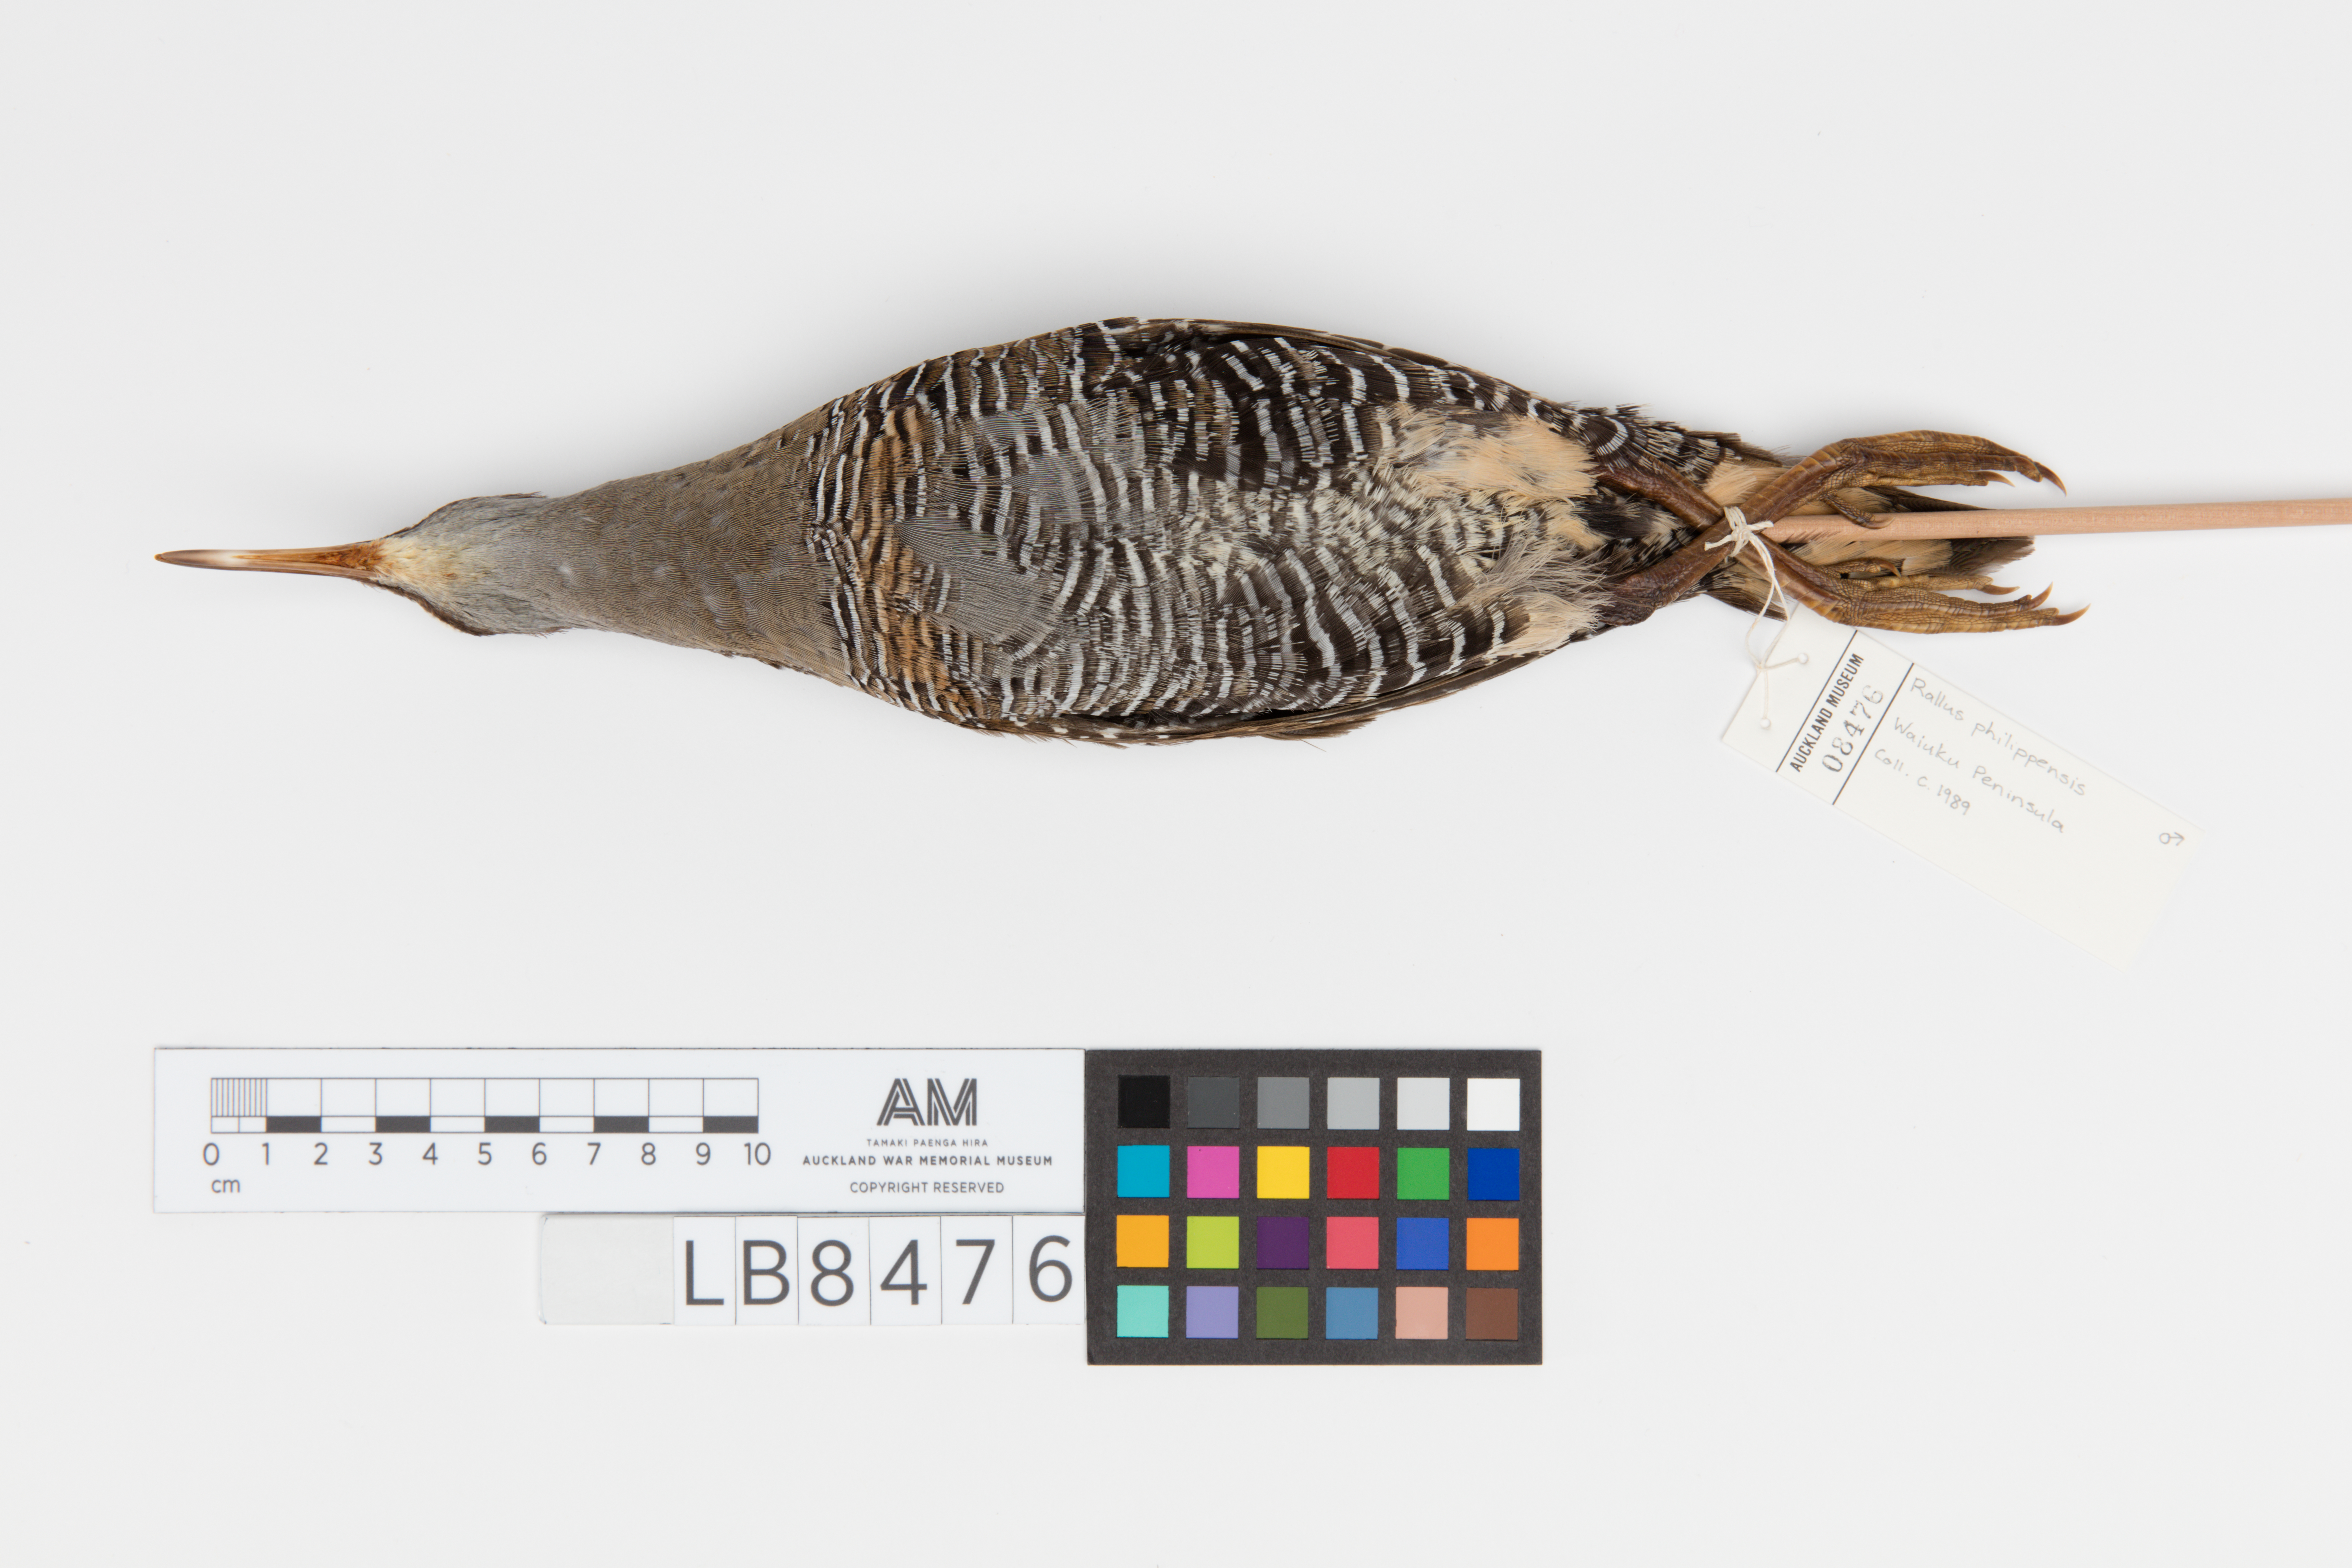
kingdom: Animalia
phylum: Chordata
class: Aves
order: Gruiformes
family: Rallidae
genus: Gallirallus
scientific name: Gallirallus philippensis
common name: Buff-banded rail
